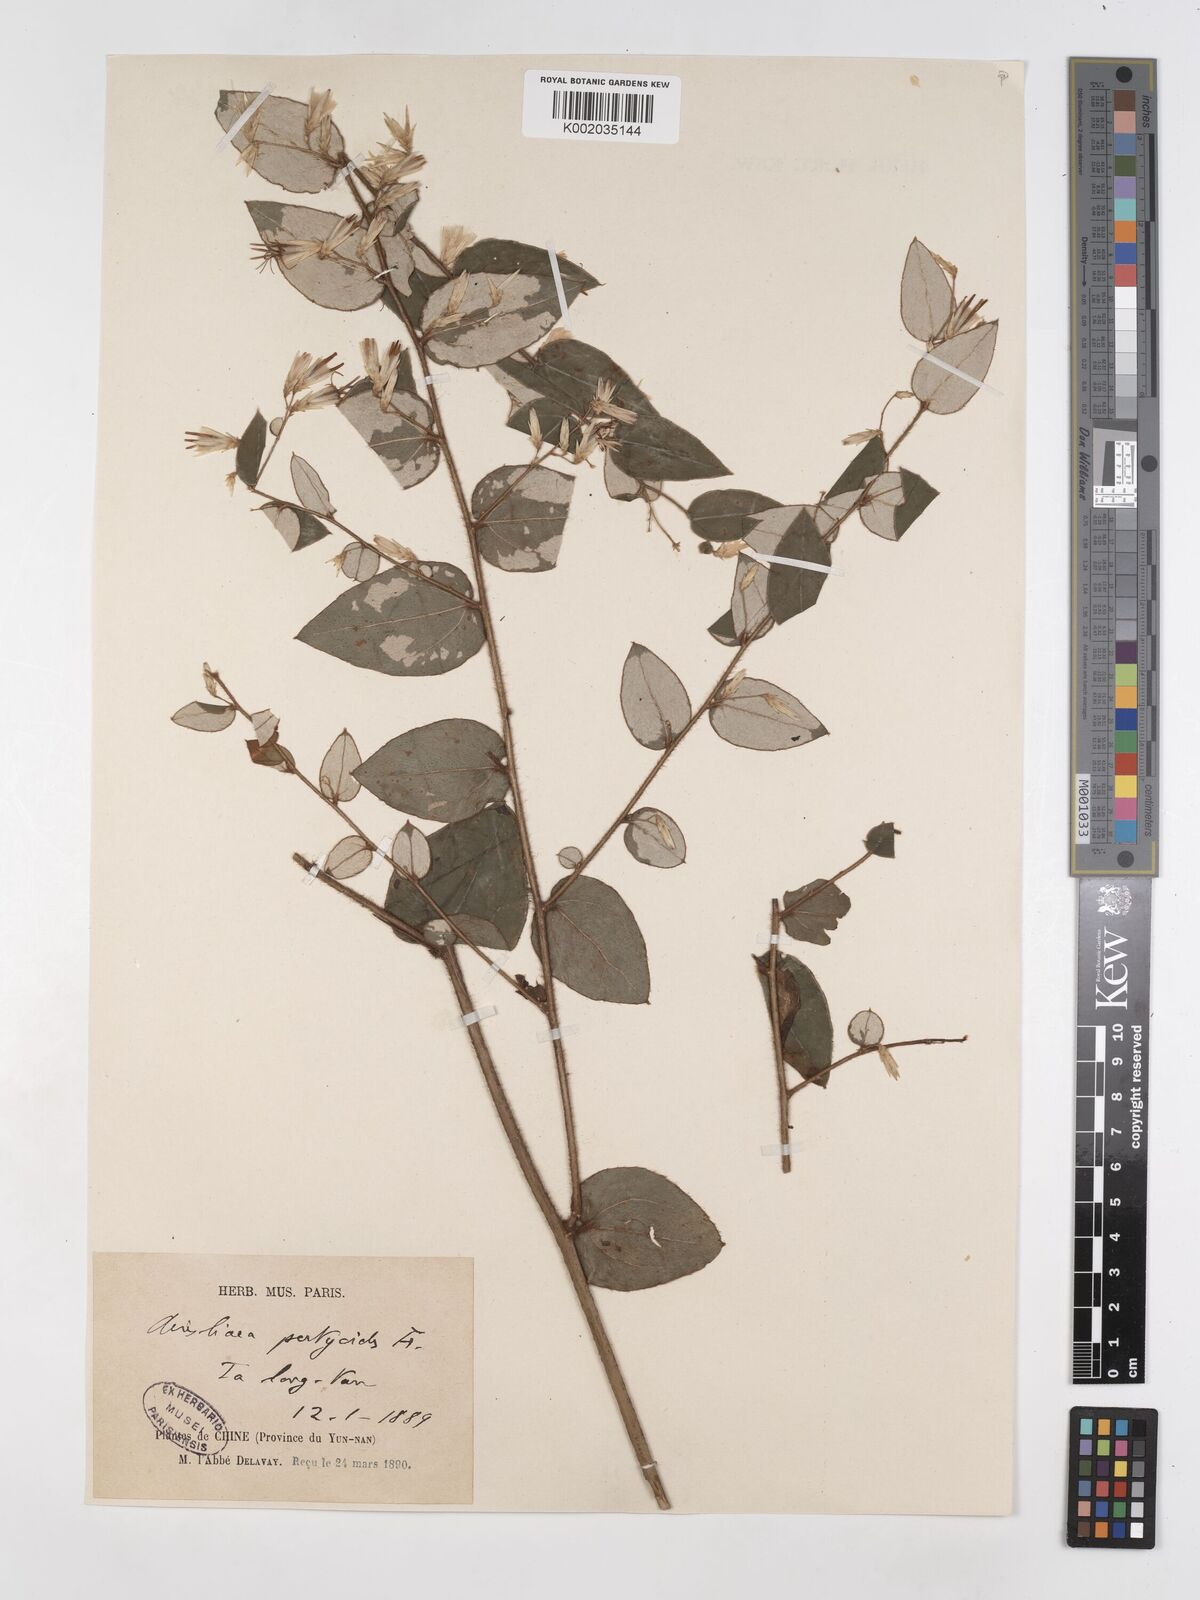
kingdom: Plantae
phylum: Tracheophyta
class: Magnoliopsida
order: Asterales
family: Asteraceae
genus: Ainsliaea
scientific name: Ainsliaea pertyoides
